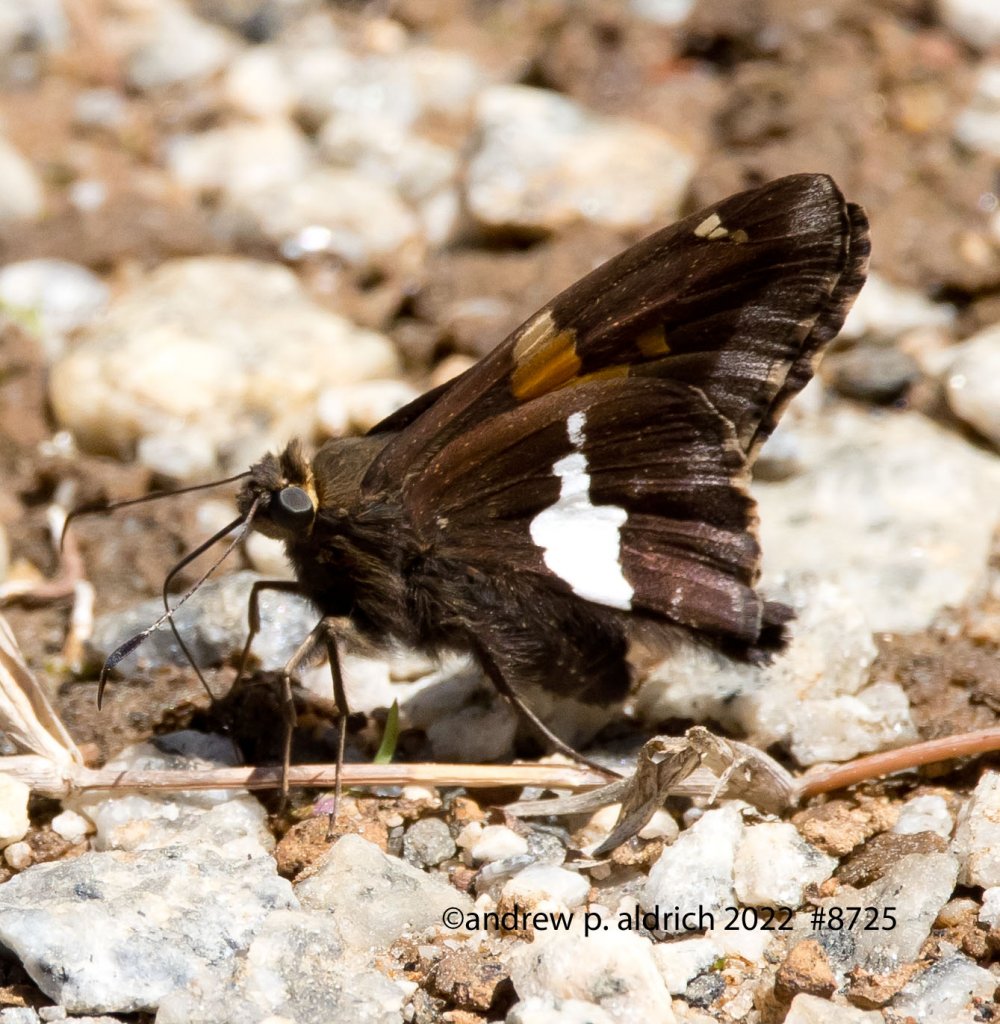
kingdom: Animalia
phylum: Arthropoda
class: Insecta
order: Lepidoptera
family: Hesperiidae
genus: Epargyreus
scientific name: Epargyreus clarus
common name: Silver-spotted Skipper
